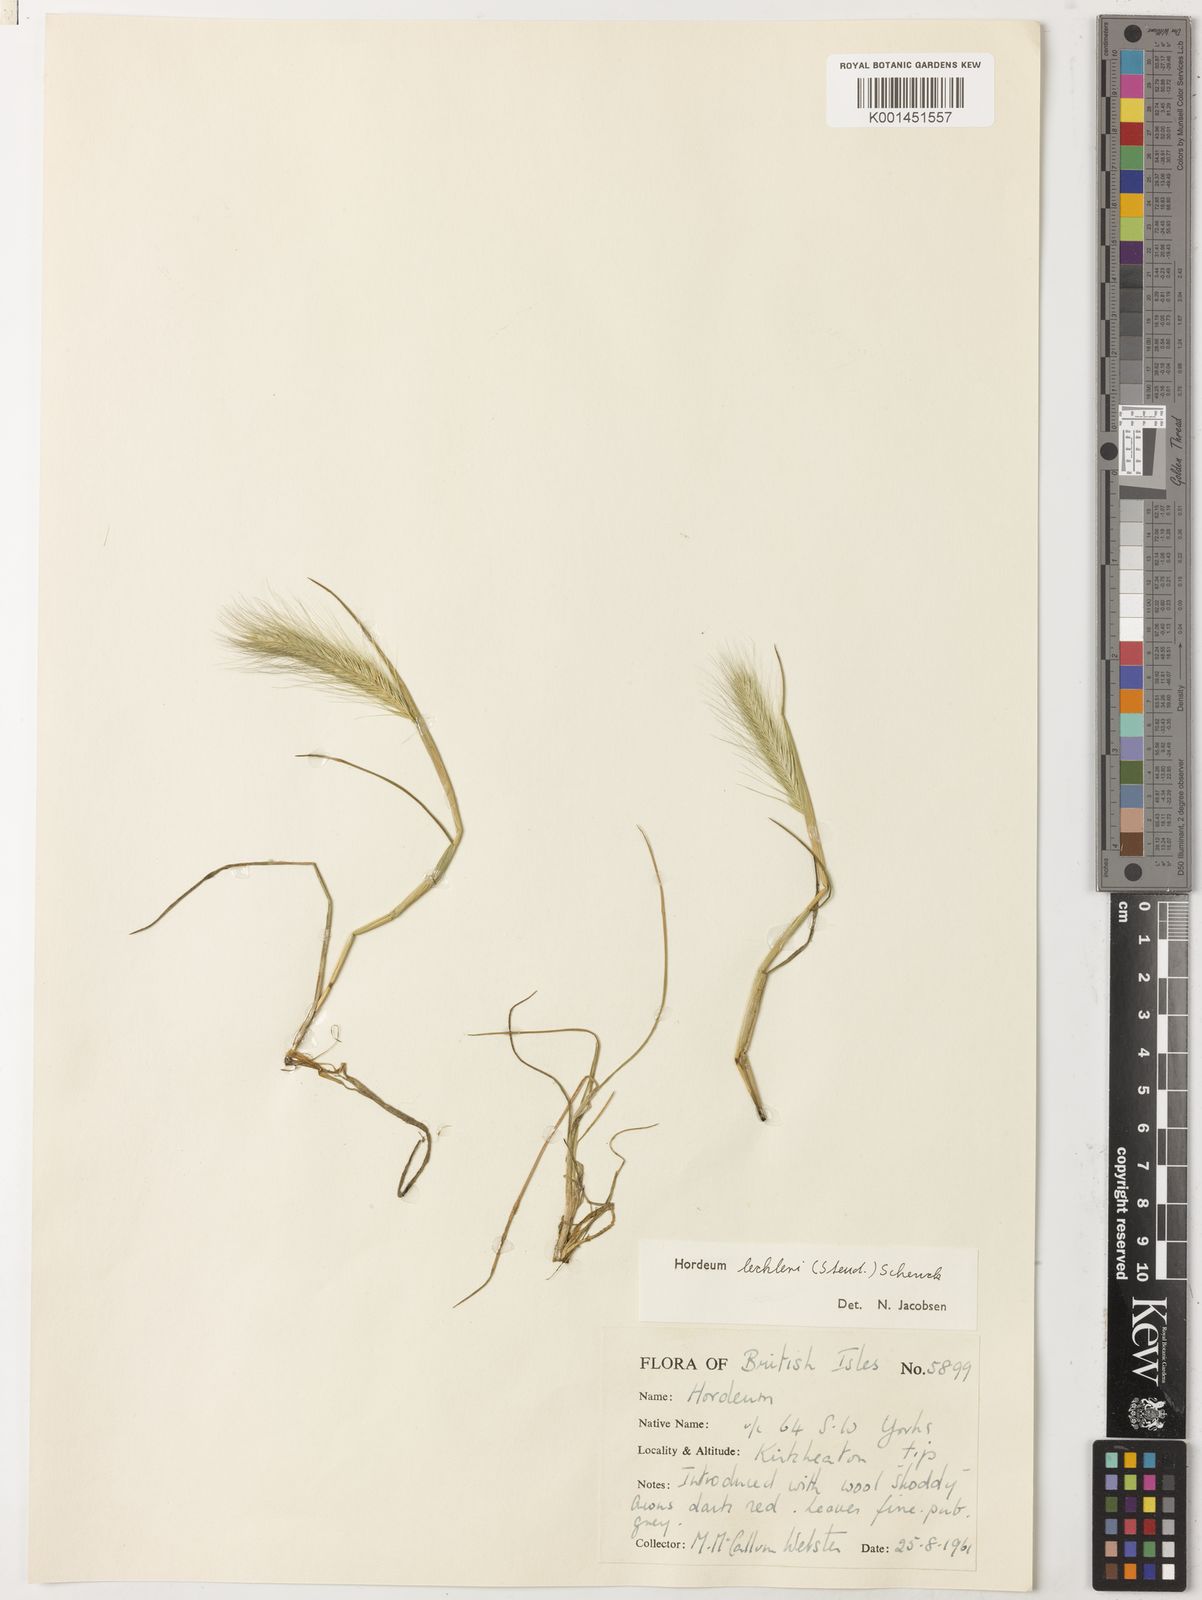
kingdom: Plantae
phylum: Tracheophyta
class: Liliopsida
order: Poales
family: Poaceae
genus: Hordeum
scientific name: Hordeum lechleri
